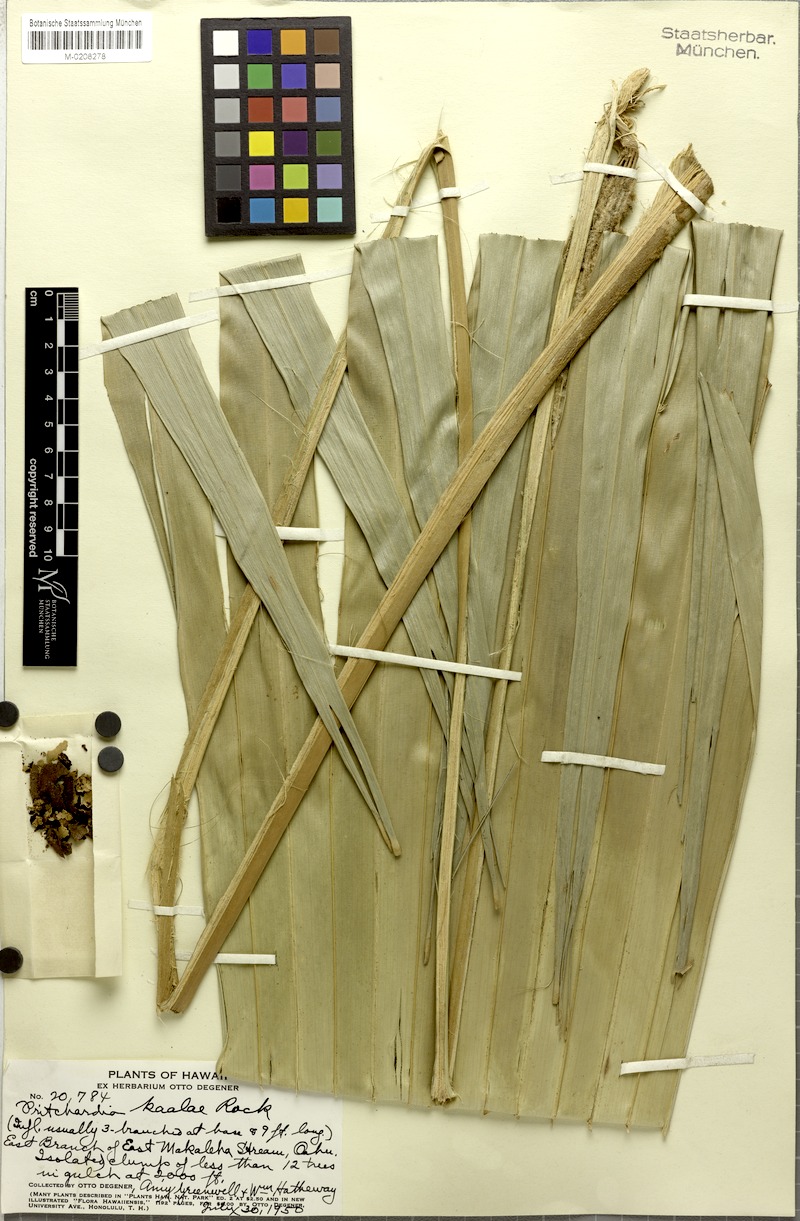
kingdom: Plantae
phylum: Tracheophyta
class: Liliopsida
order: Arecales
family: Arecaceae
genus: Pritchardia
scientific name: Pritchardia kaalae
